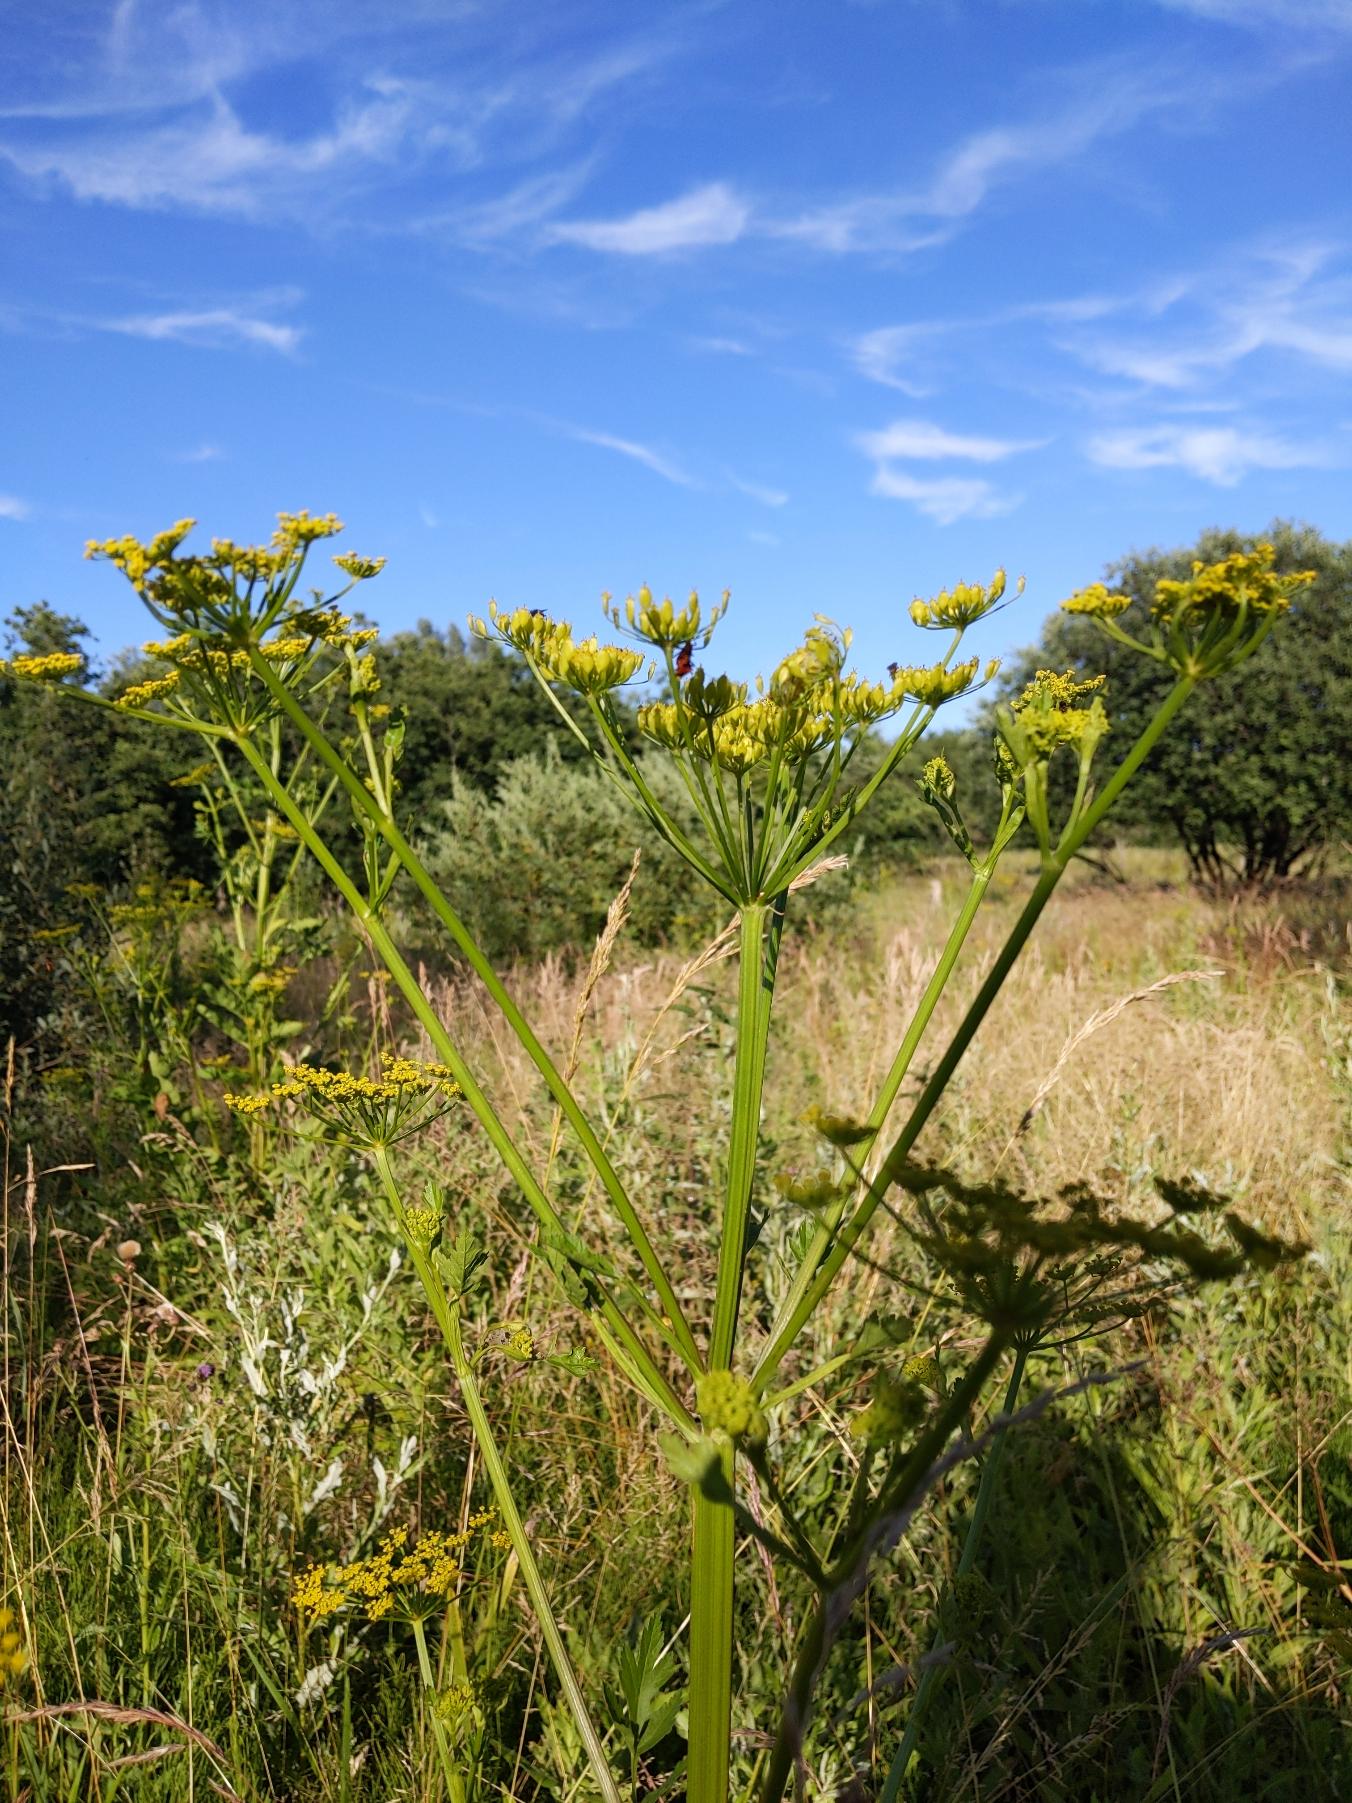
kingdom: Plantae
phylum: Tracheophyta
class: Magnoliopsida
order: Apiales
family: Apiaceae
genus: Pastinaca
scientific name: Pastinaca sativa
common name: Pastinak
